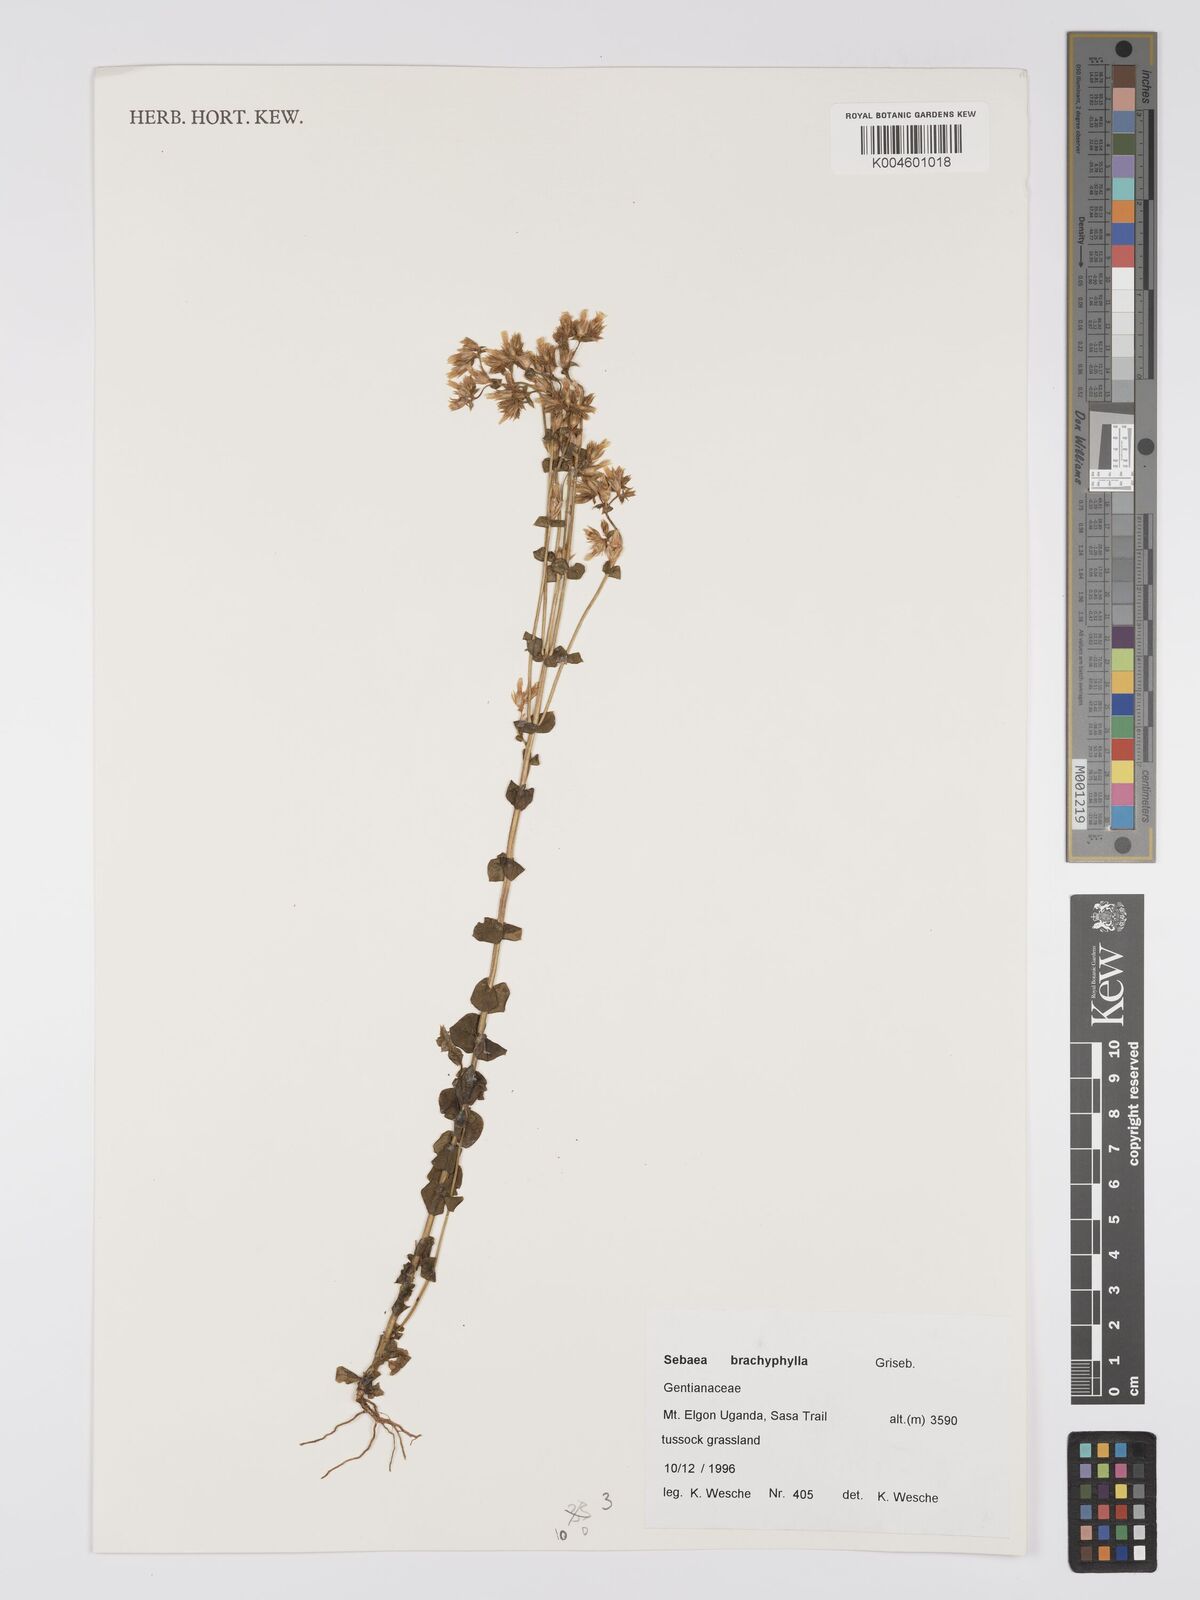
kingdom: Plantae
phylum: Tracheophyta
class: Magnoliopsida
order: Gentianales
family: Gentianaceae
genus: Sebaea
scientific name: Sebaea brachyphylla
